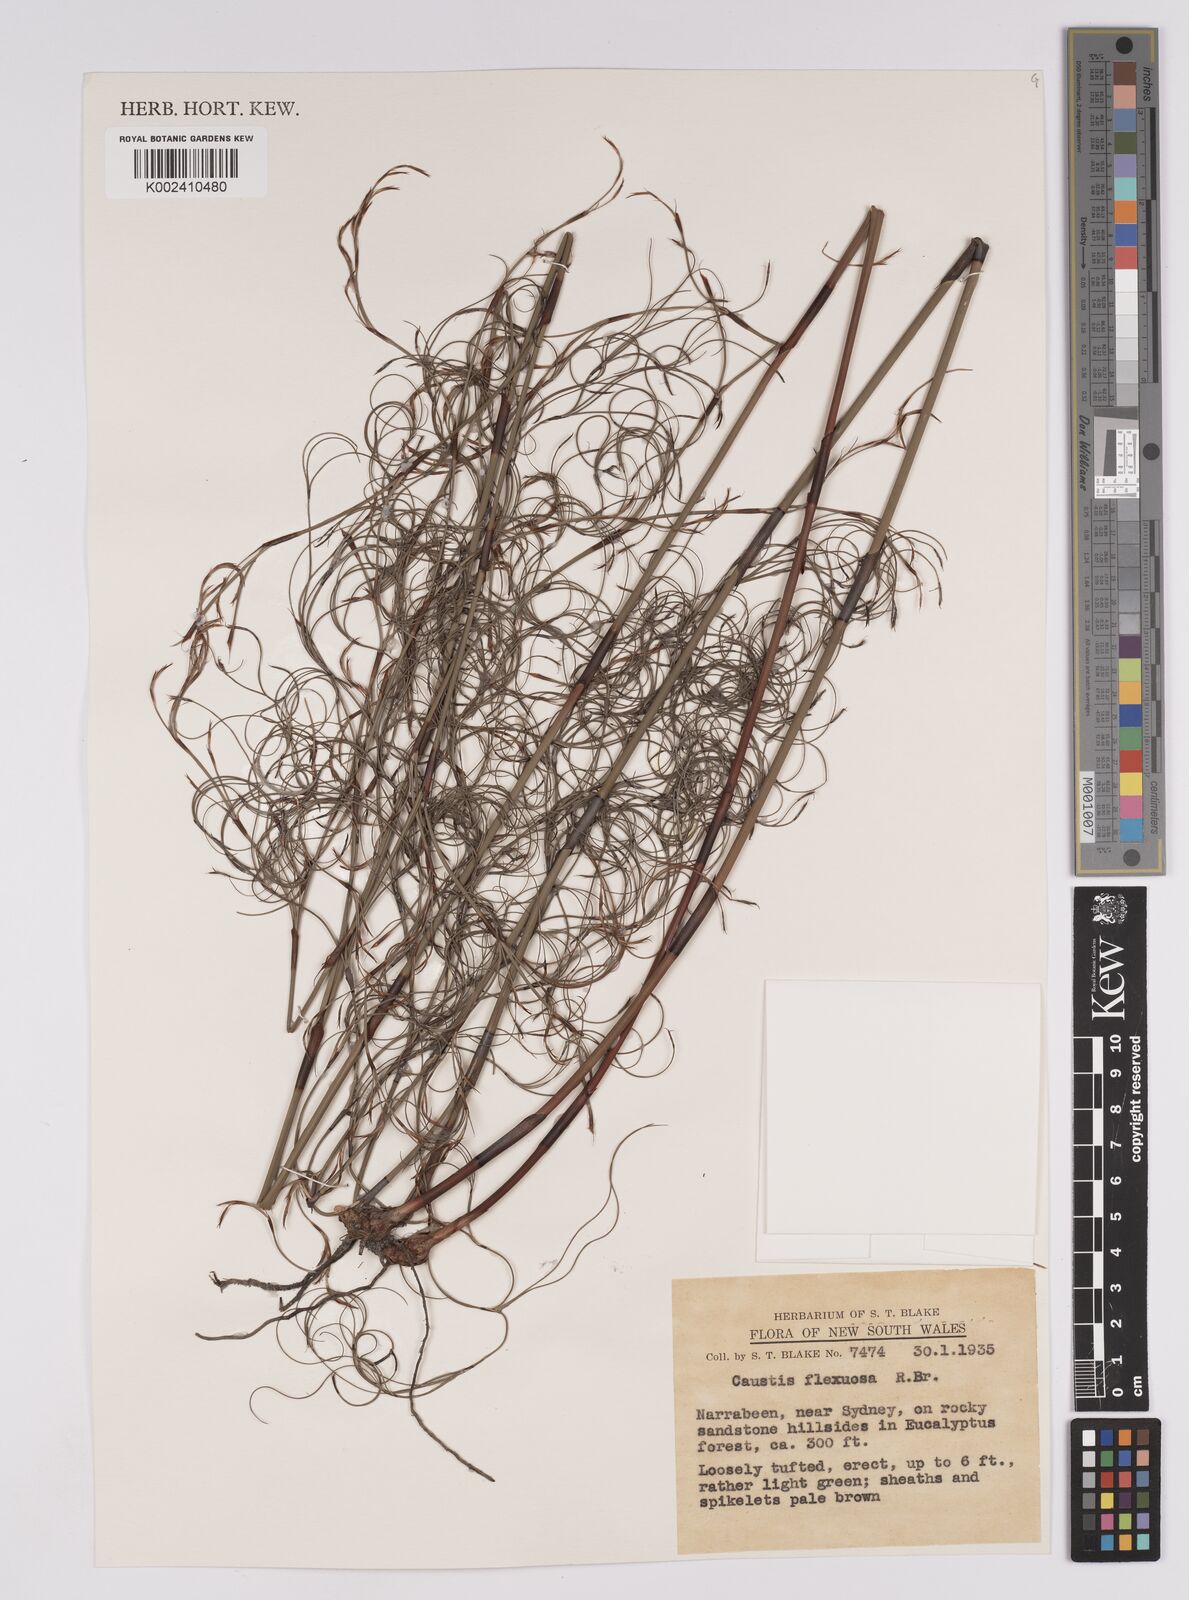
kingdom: Plantae
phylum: Tracheophyta
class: Liliopsida
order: Poales
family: Cyperaceae
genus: Caustis
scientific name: Caustis flexuosa
